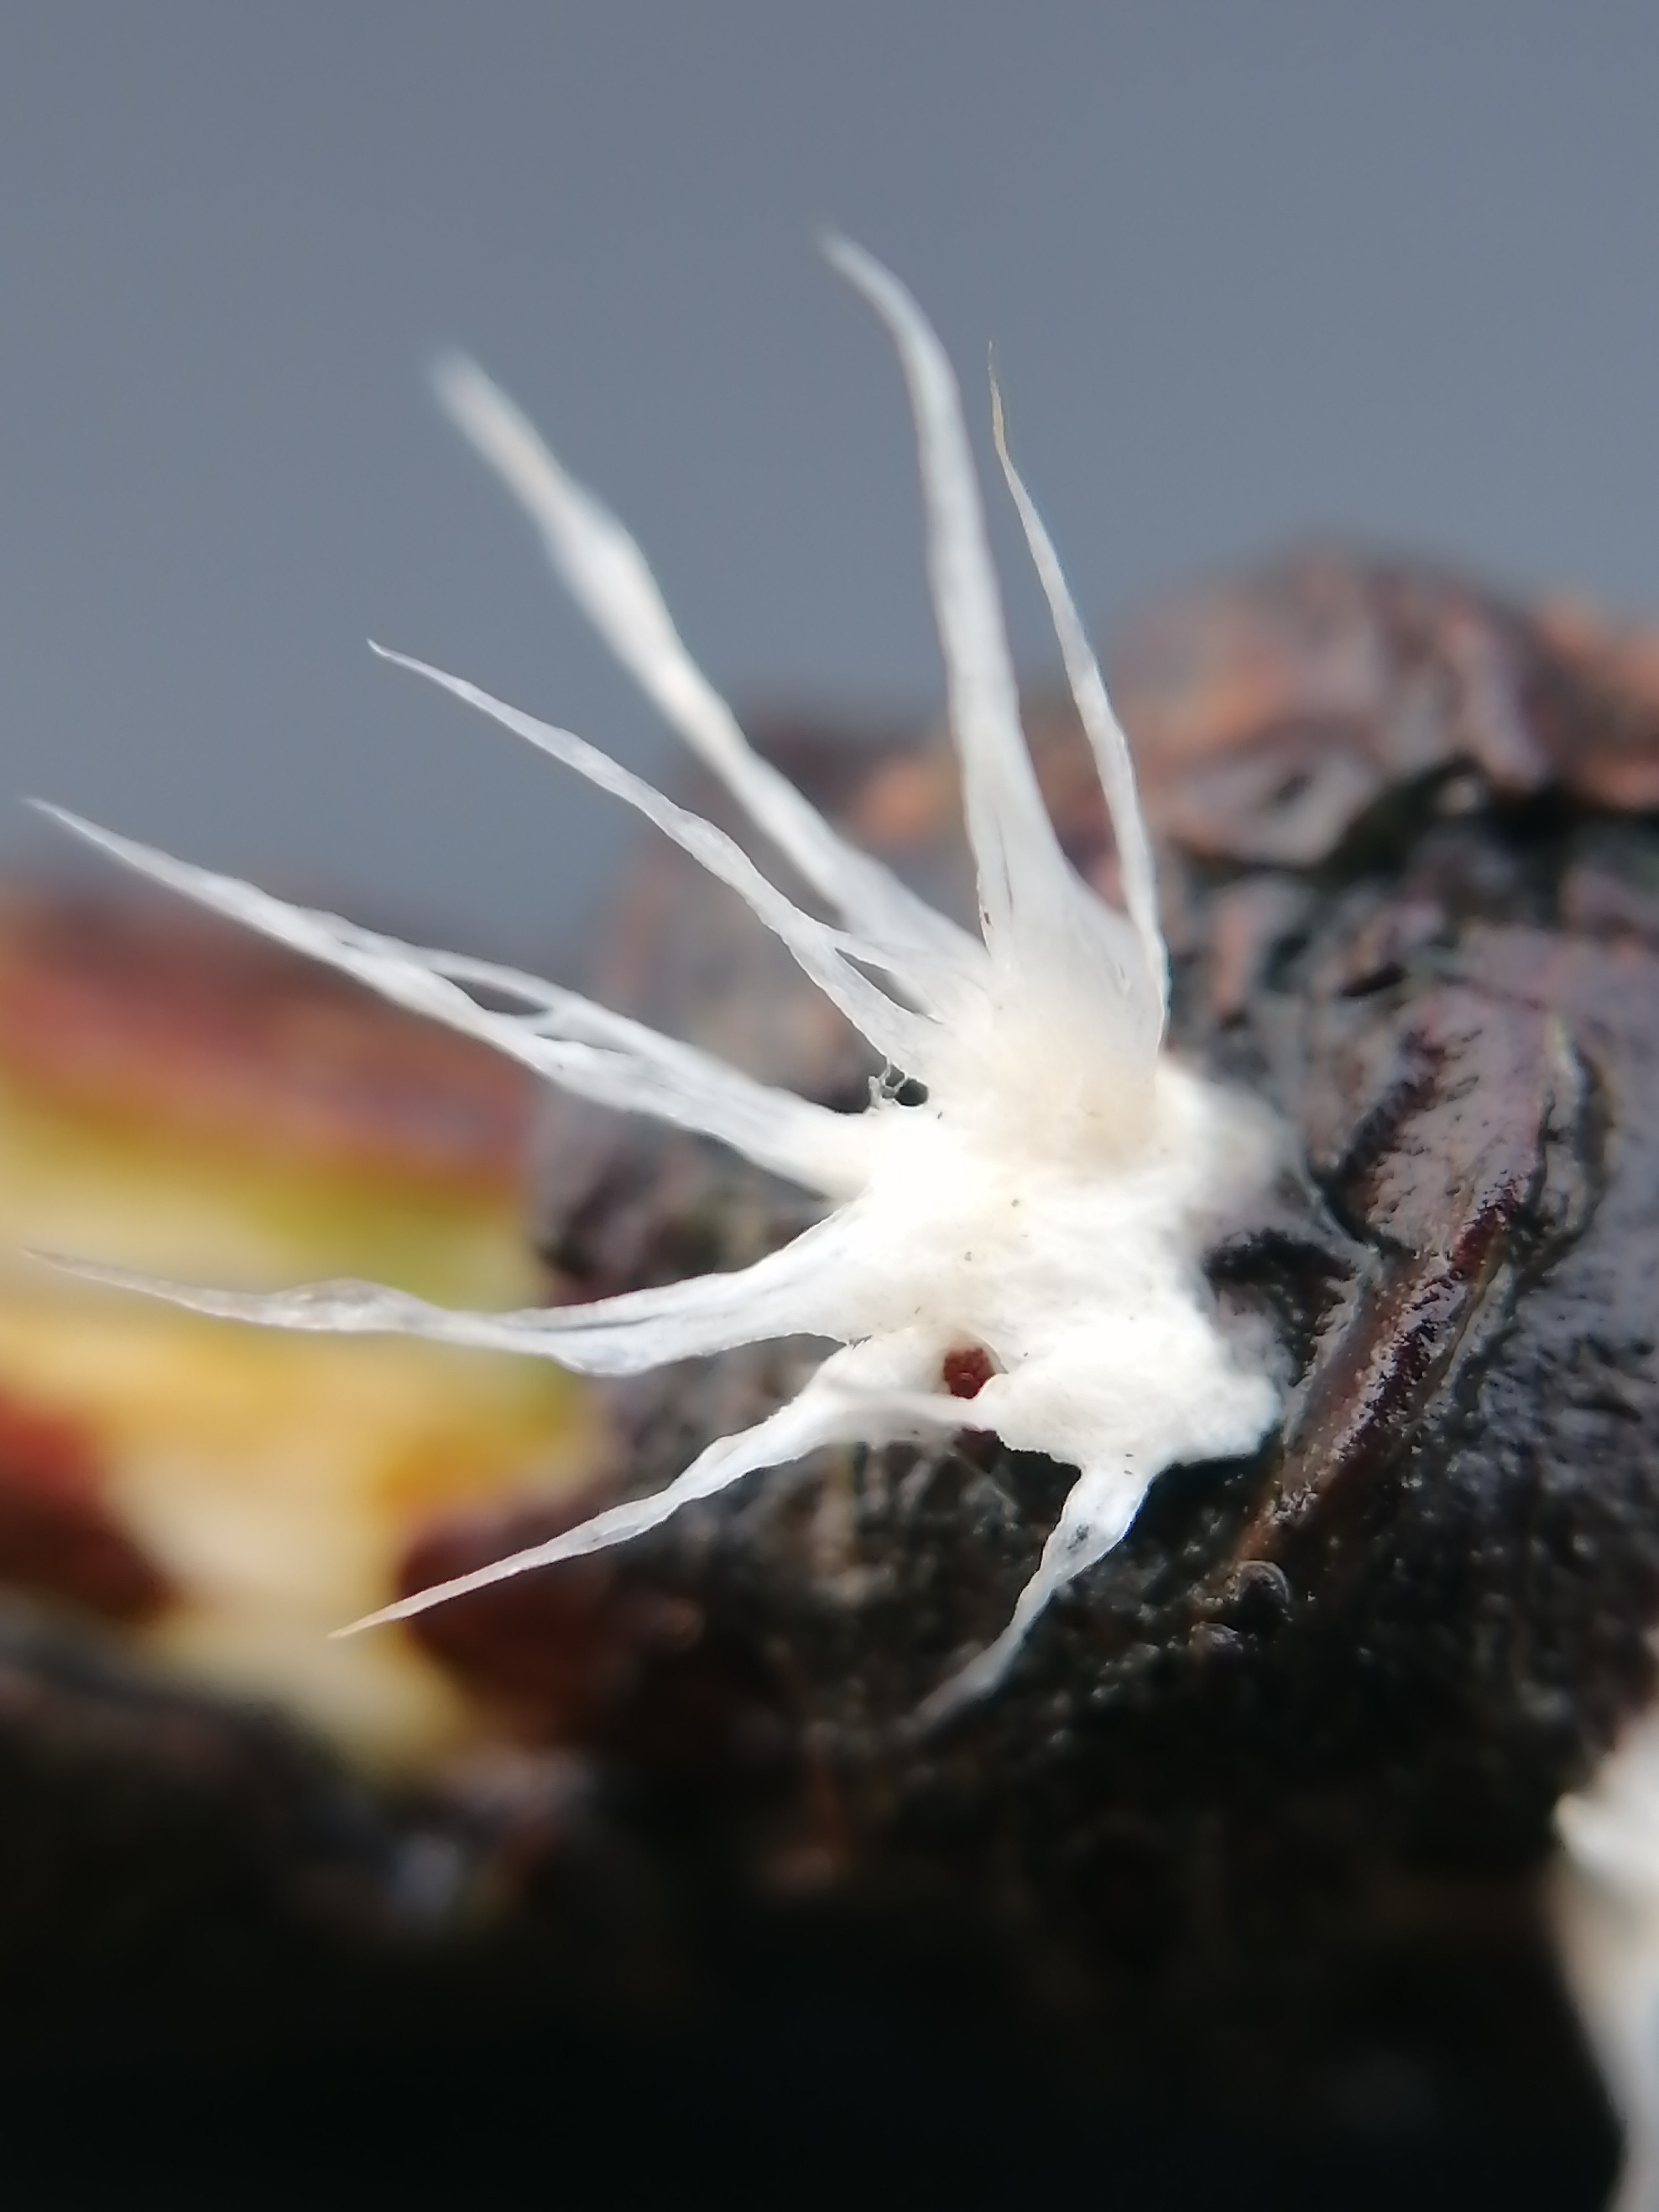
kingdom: Fungi
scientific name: Fungi
